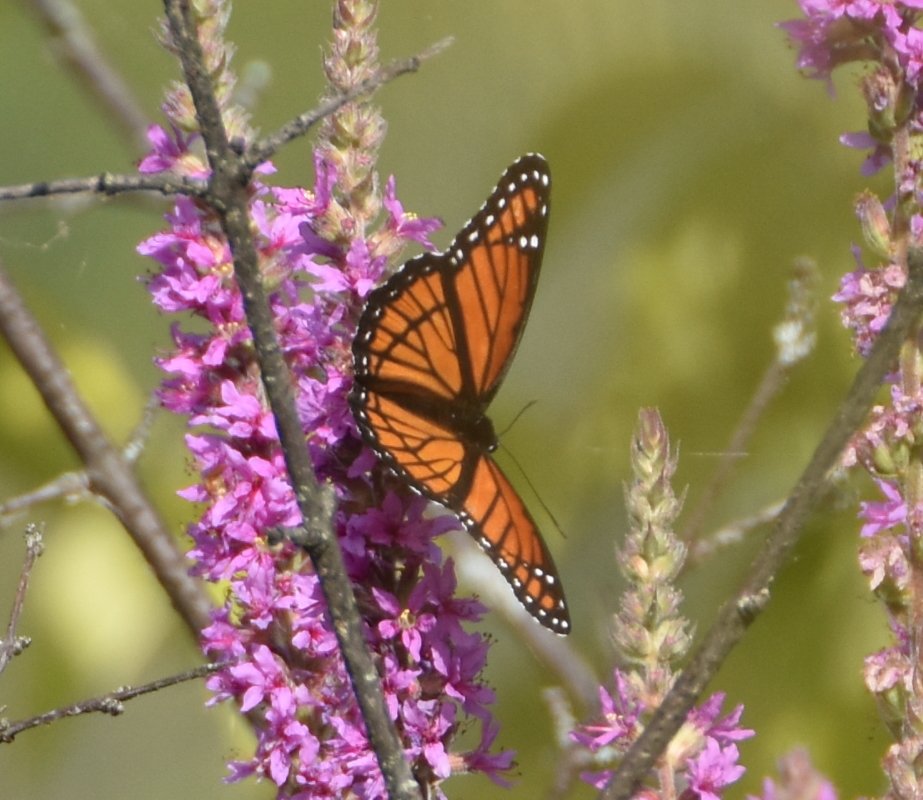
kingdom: Animalia
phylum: Arthropoda
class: Insecta
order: Lepidoptera
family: Nymphalidae
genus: Limenitis
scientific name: Limenitis archippus
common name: Viceroy
